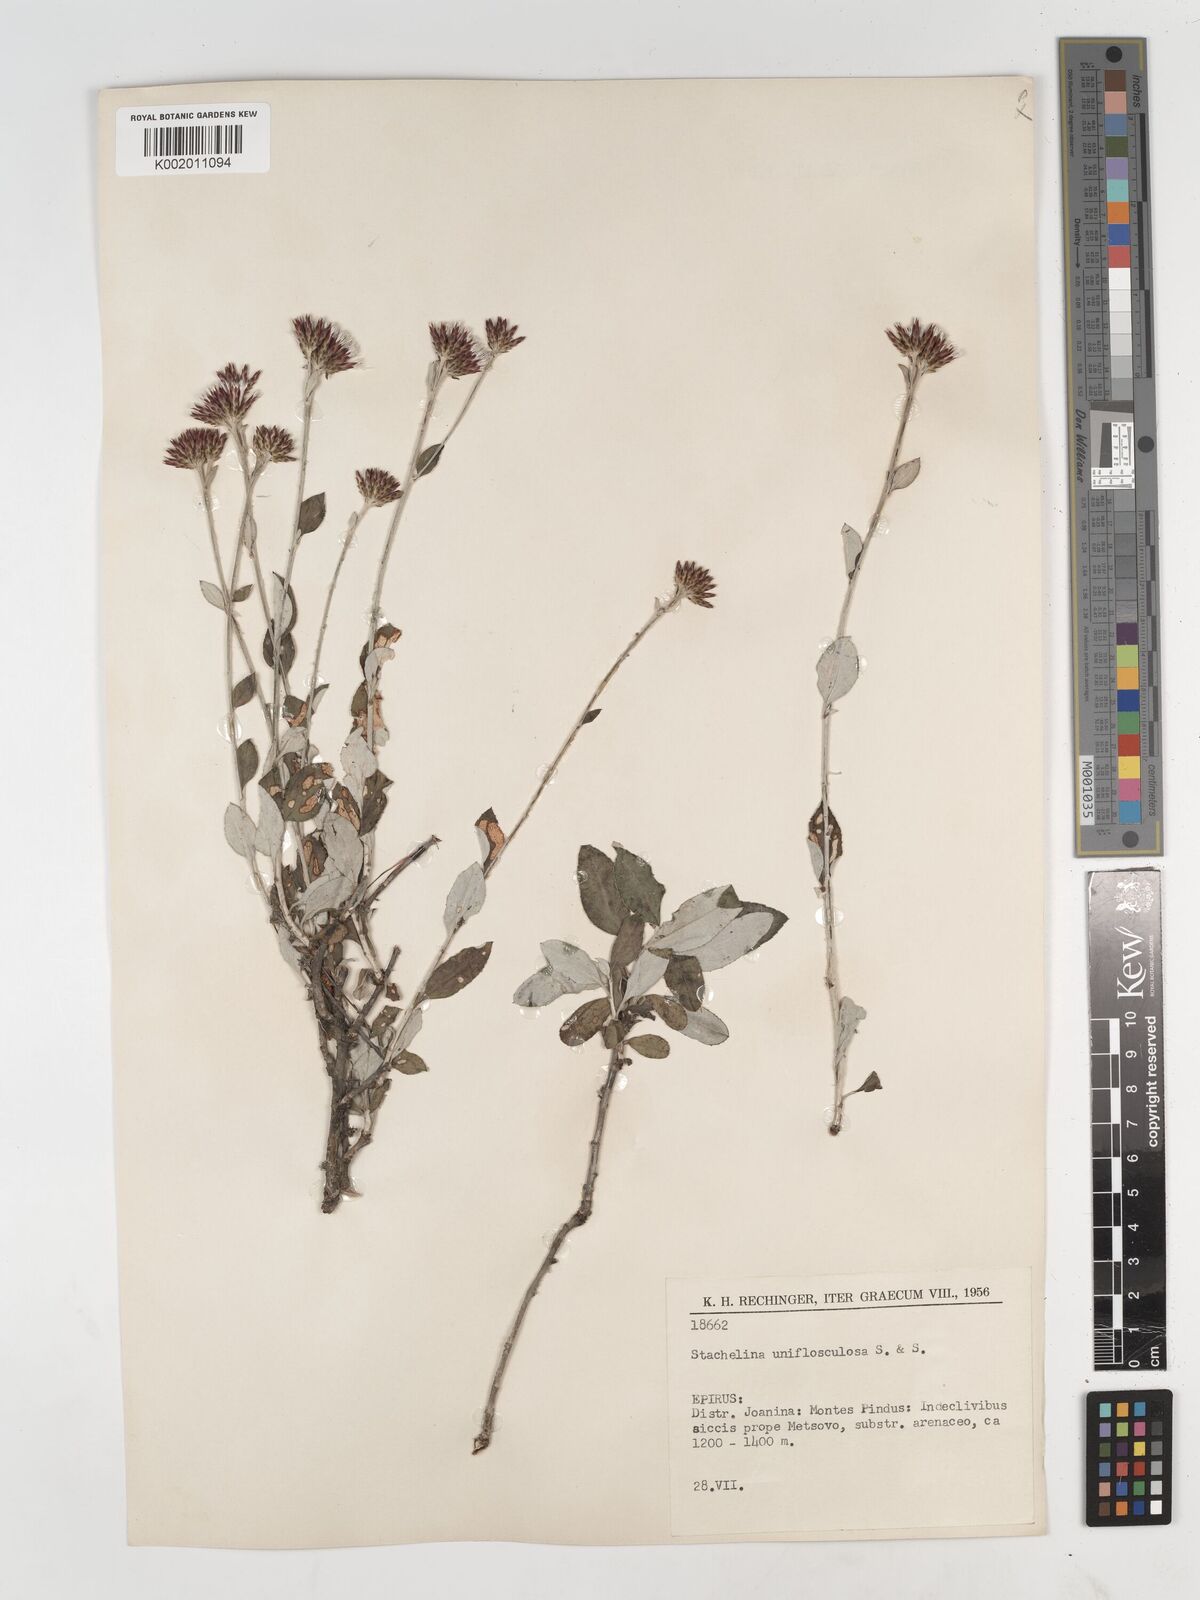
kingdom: Plantae
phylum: Tracheophyta
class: Magnoliopsida
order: Asterales
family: Asteraceae
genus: Staehelina
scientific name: Staehelina uniflosculosa
